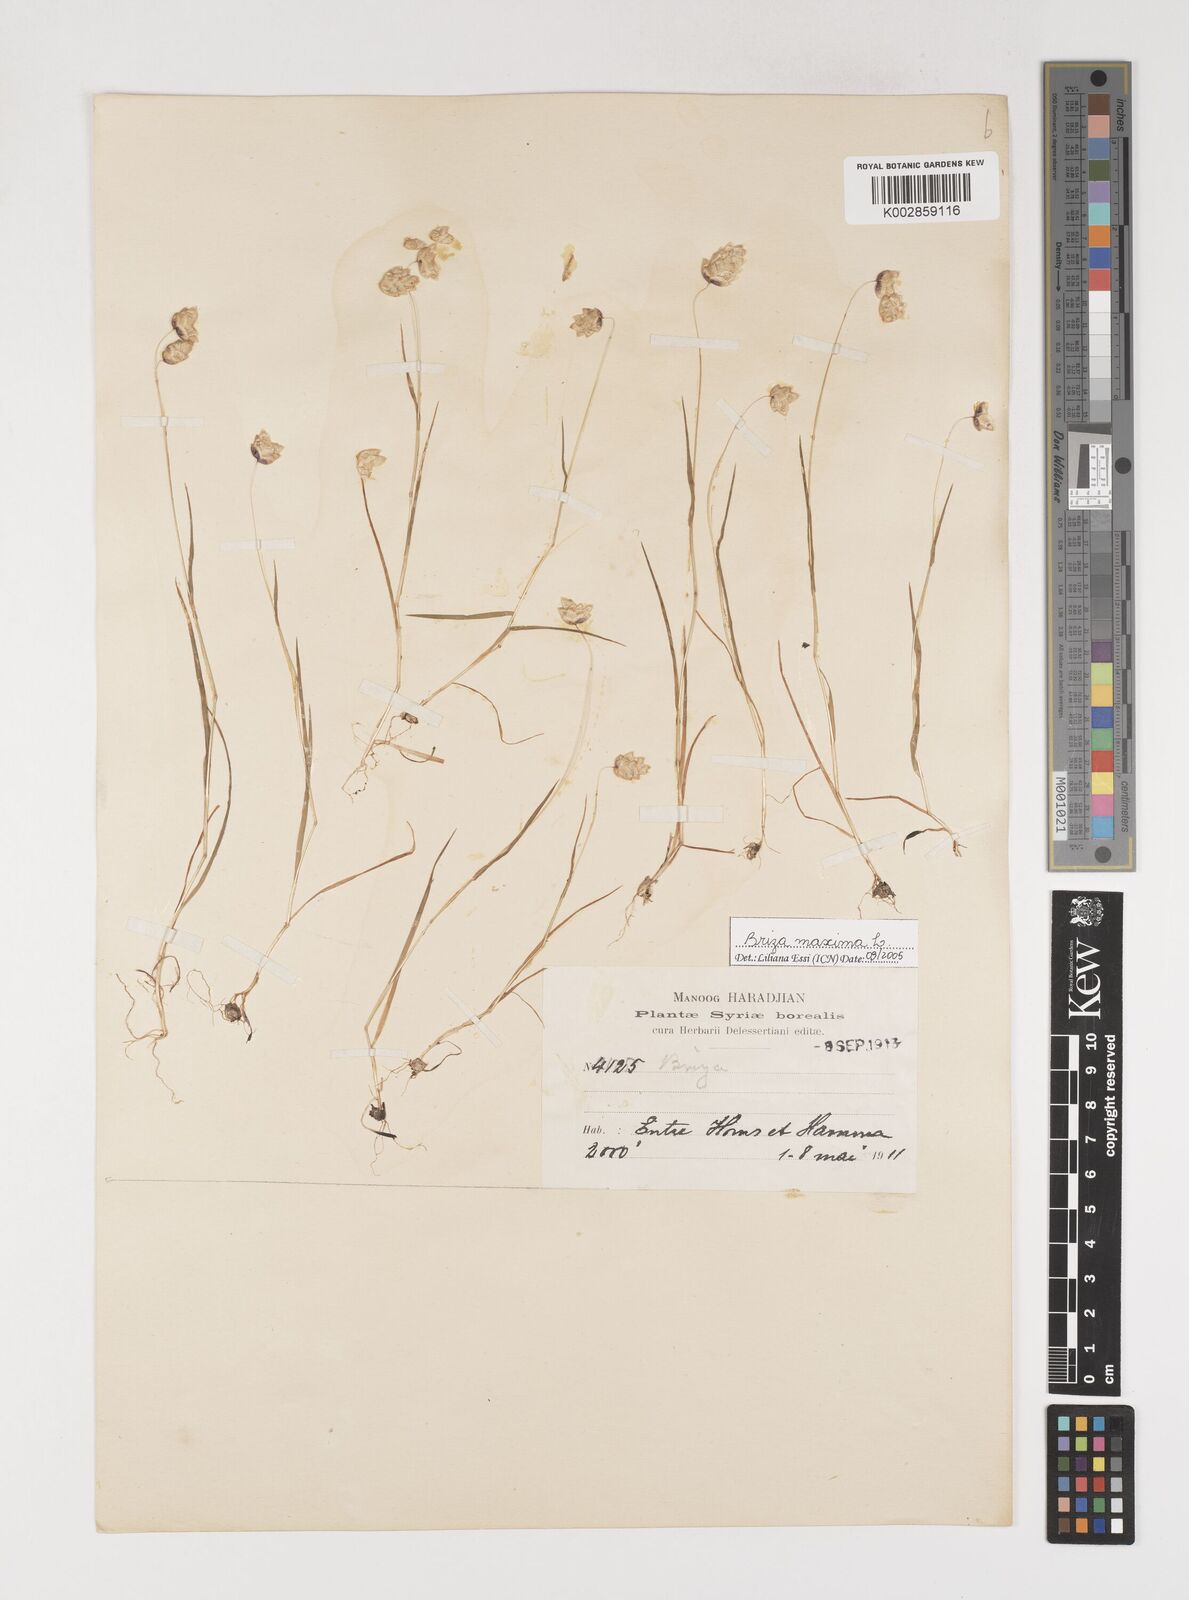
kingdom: Plantae
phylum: Tracheophyta
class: Liliopsida
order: Poales
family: Poaceae
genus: Briza
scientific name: Briza maxima
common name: Big quakinggrass
